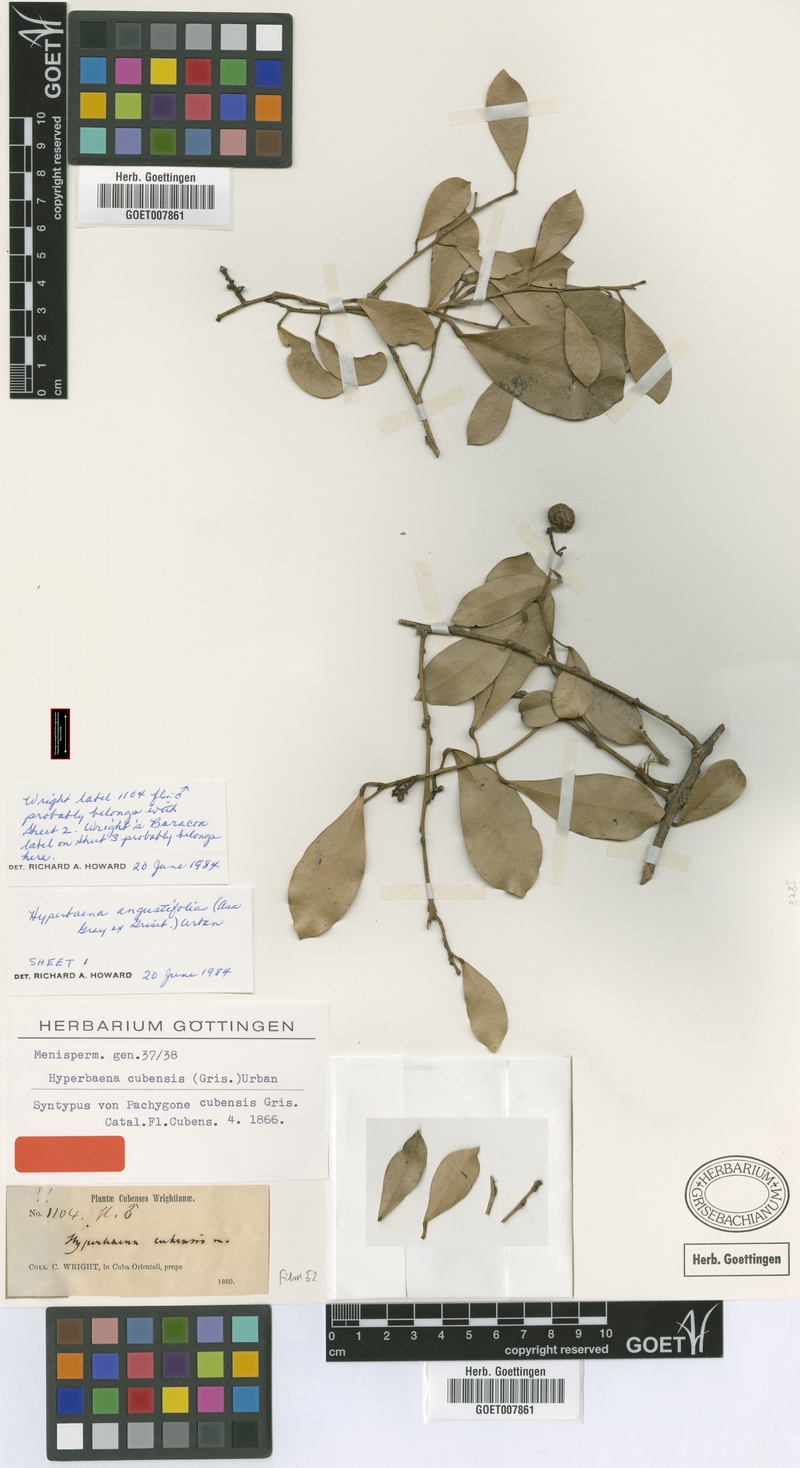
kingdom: Plantae
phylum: Tracheophyta
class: Magnoliopsida
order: Ranunculales
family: Menispermaceae
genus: Hyperbaena
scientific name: Hyperbaena cubensis
